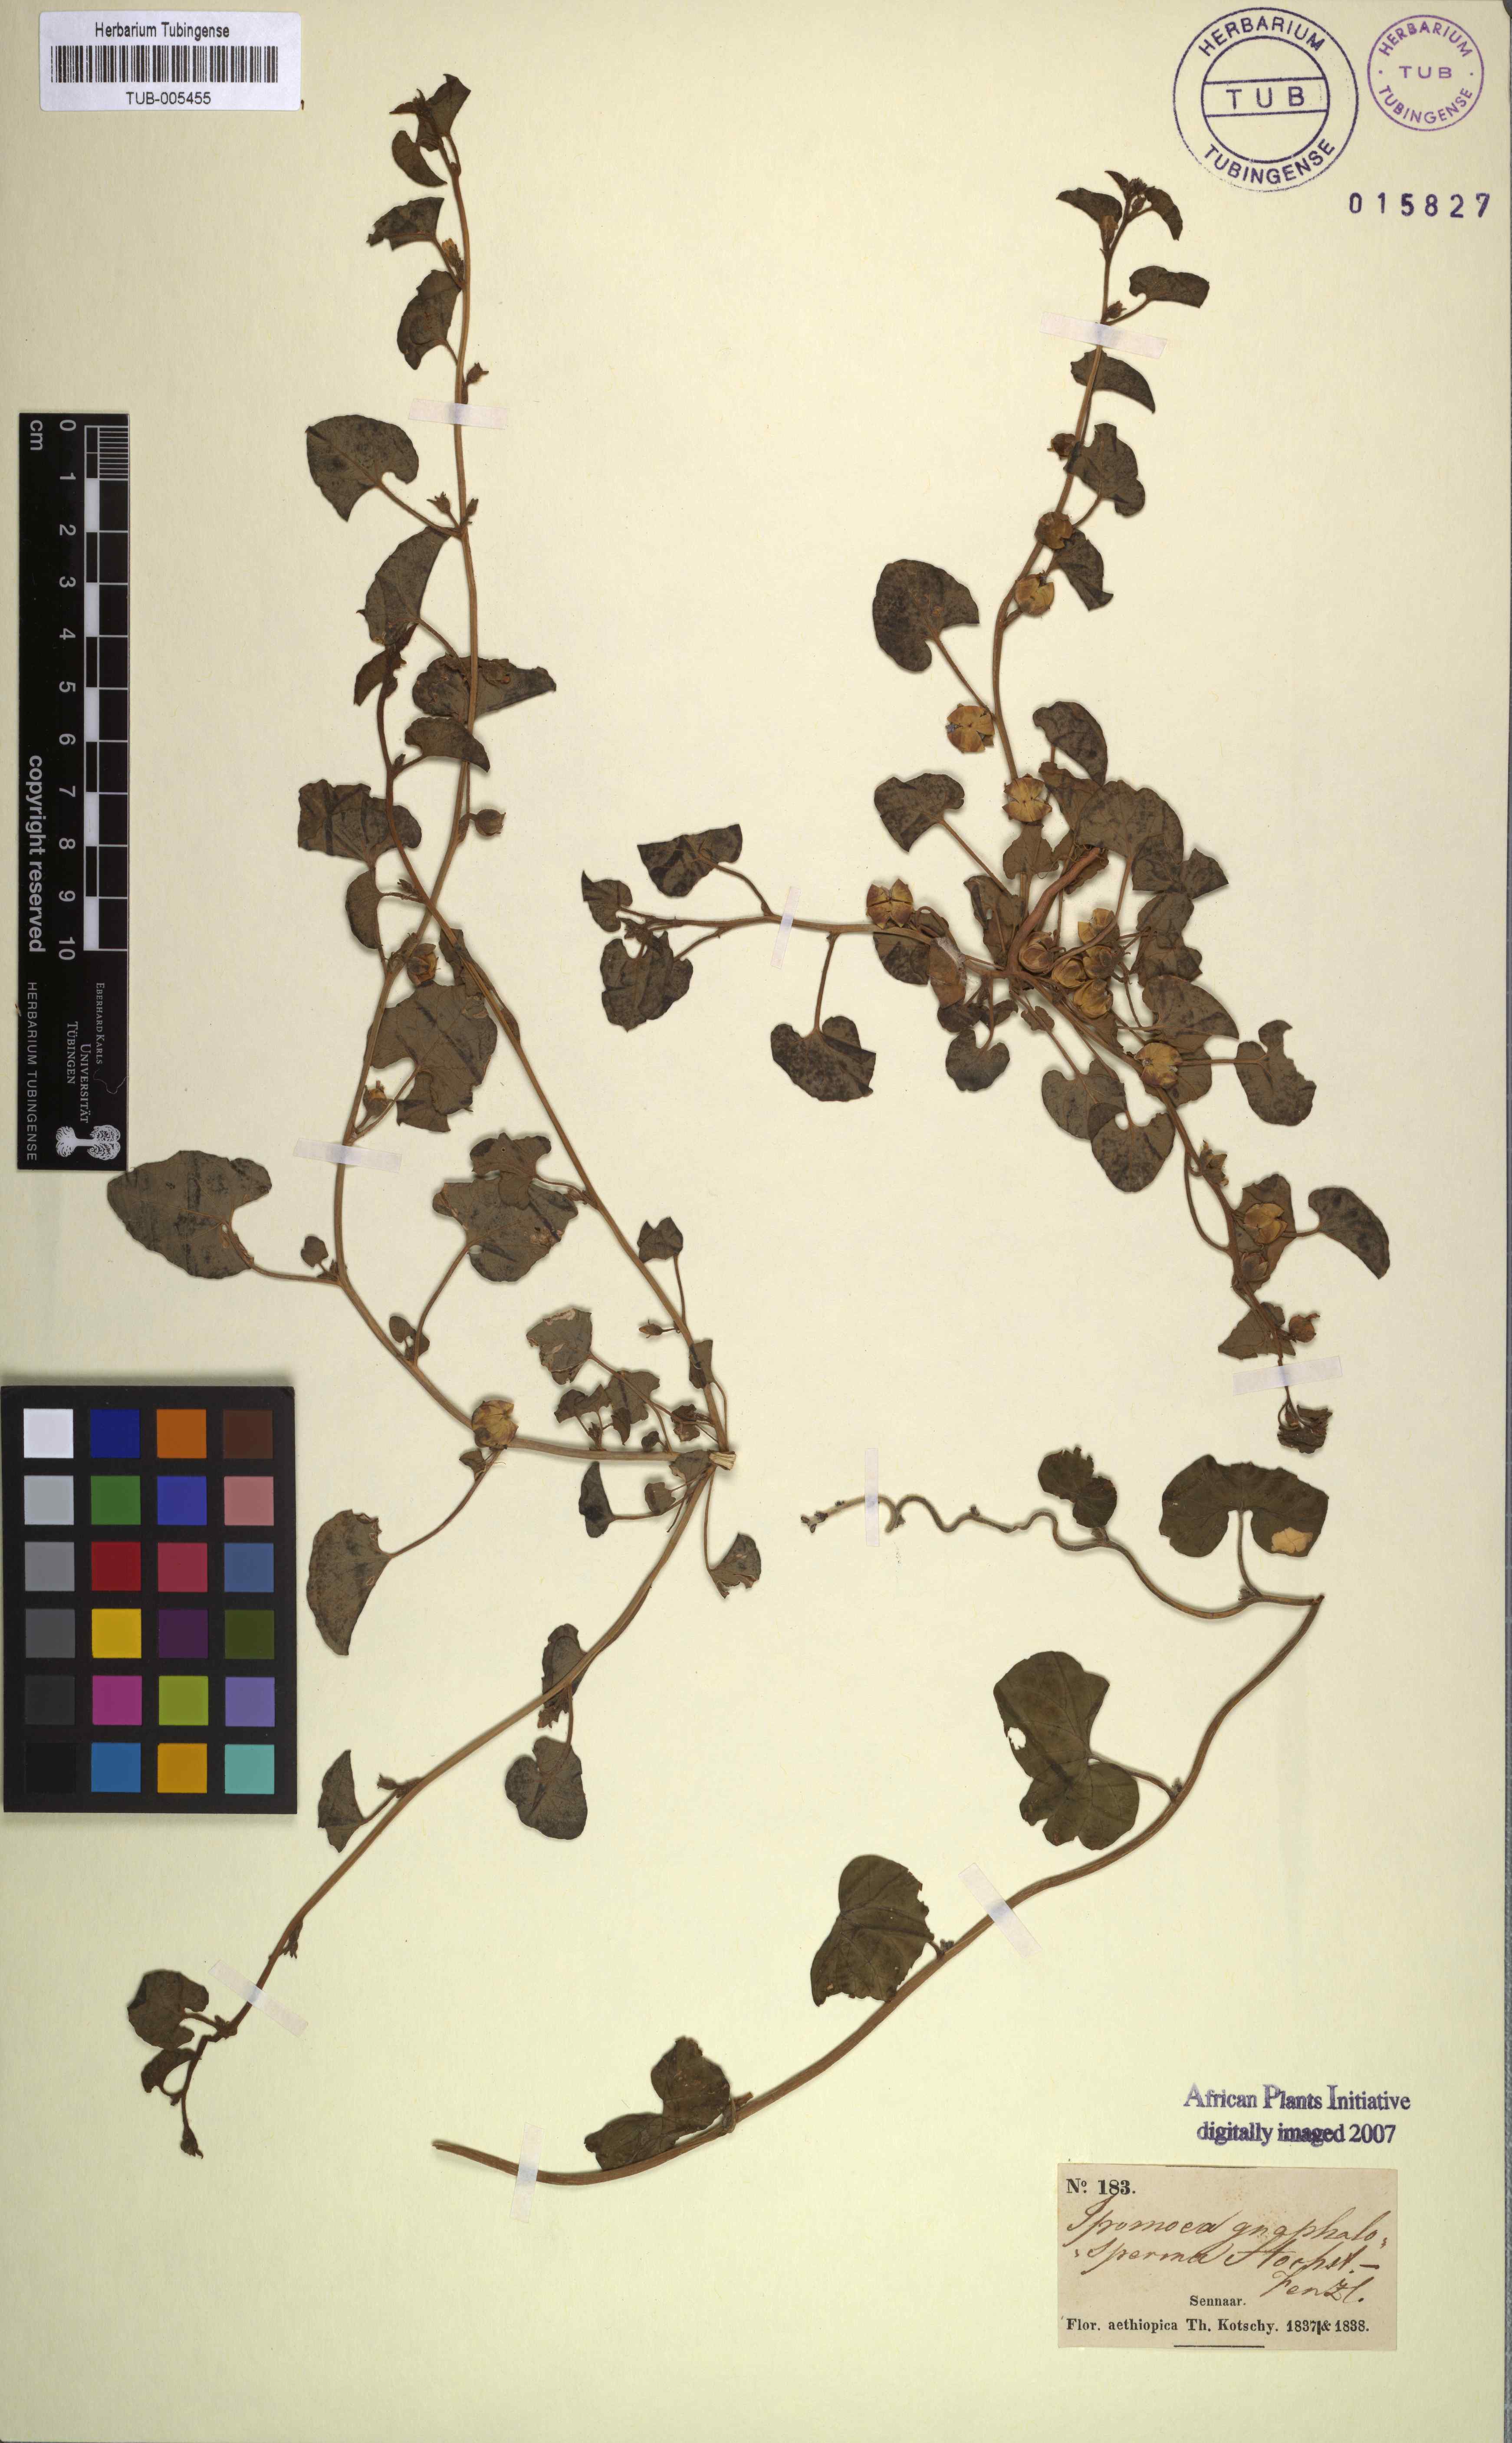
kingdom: Plantae
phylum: Tracheophyta
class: Magnoliopsida
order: Solanales
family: Convolvulaceae
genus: Ipomoea
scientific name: Ipomoea verticillata
